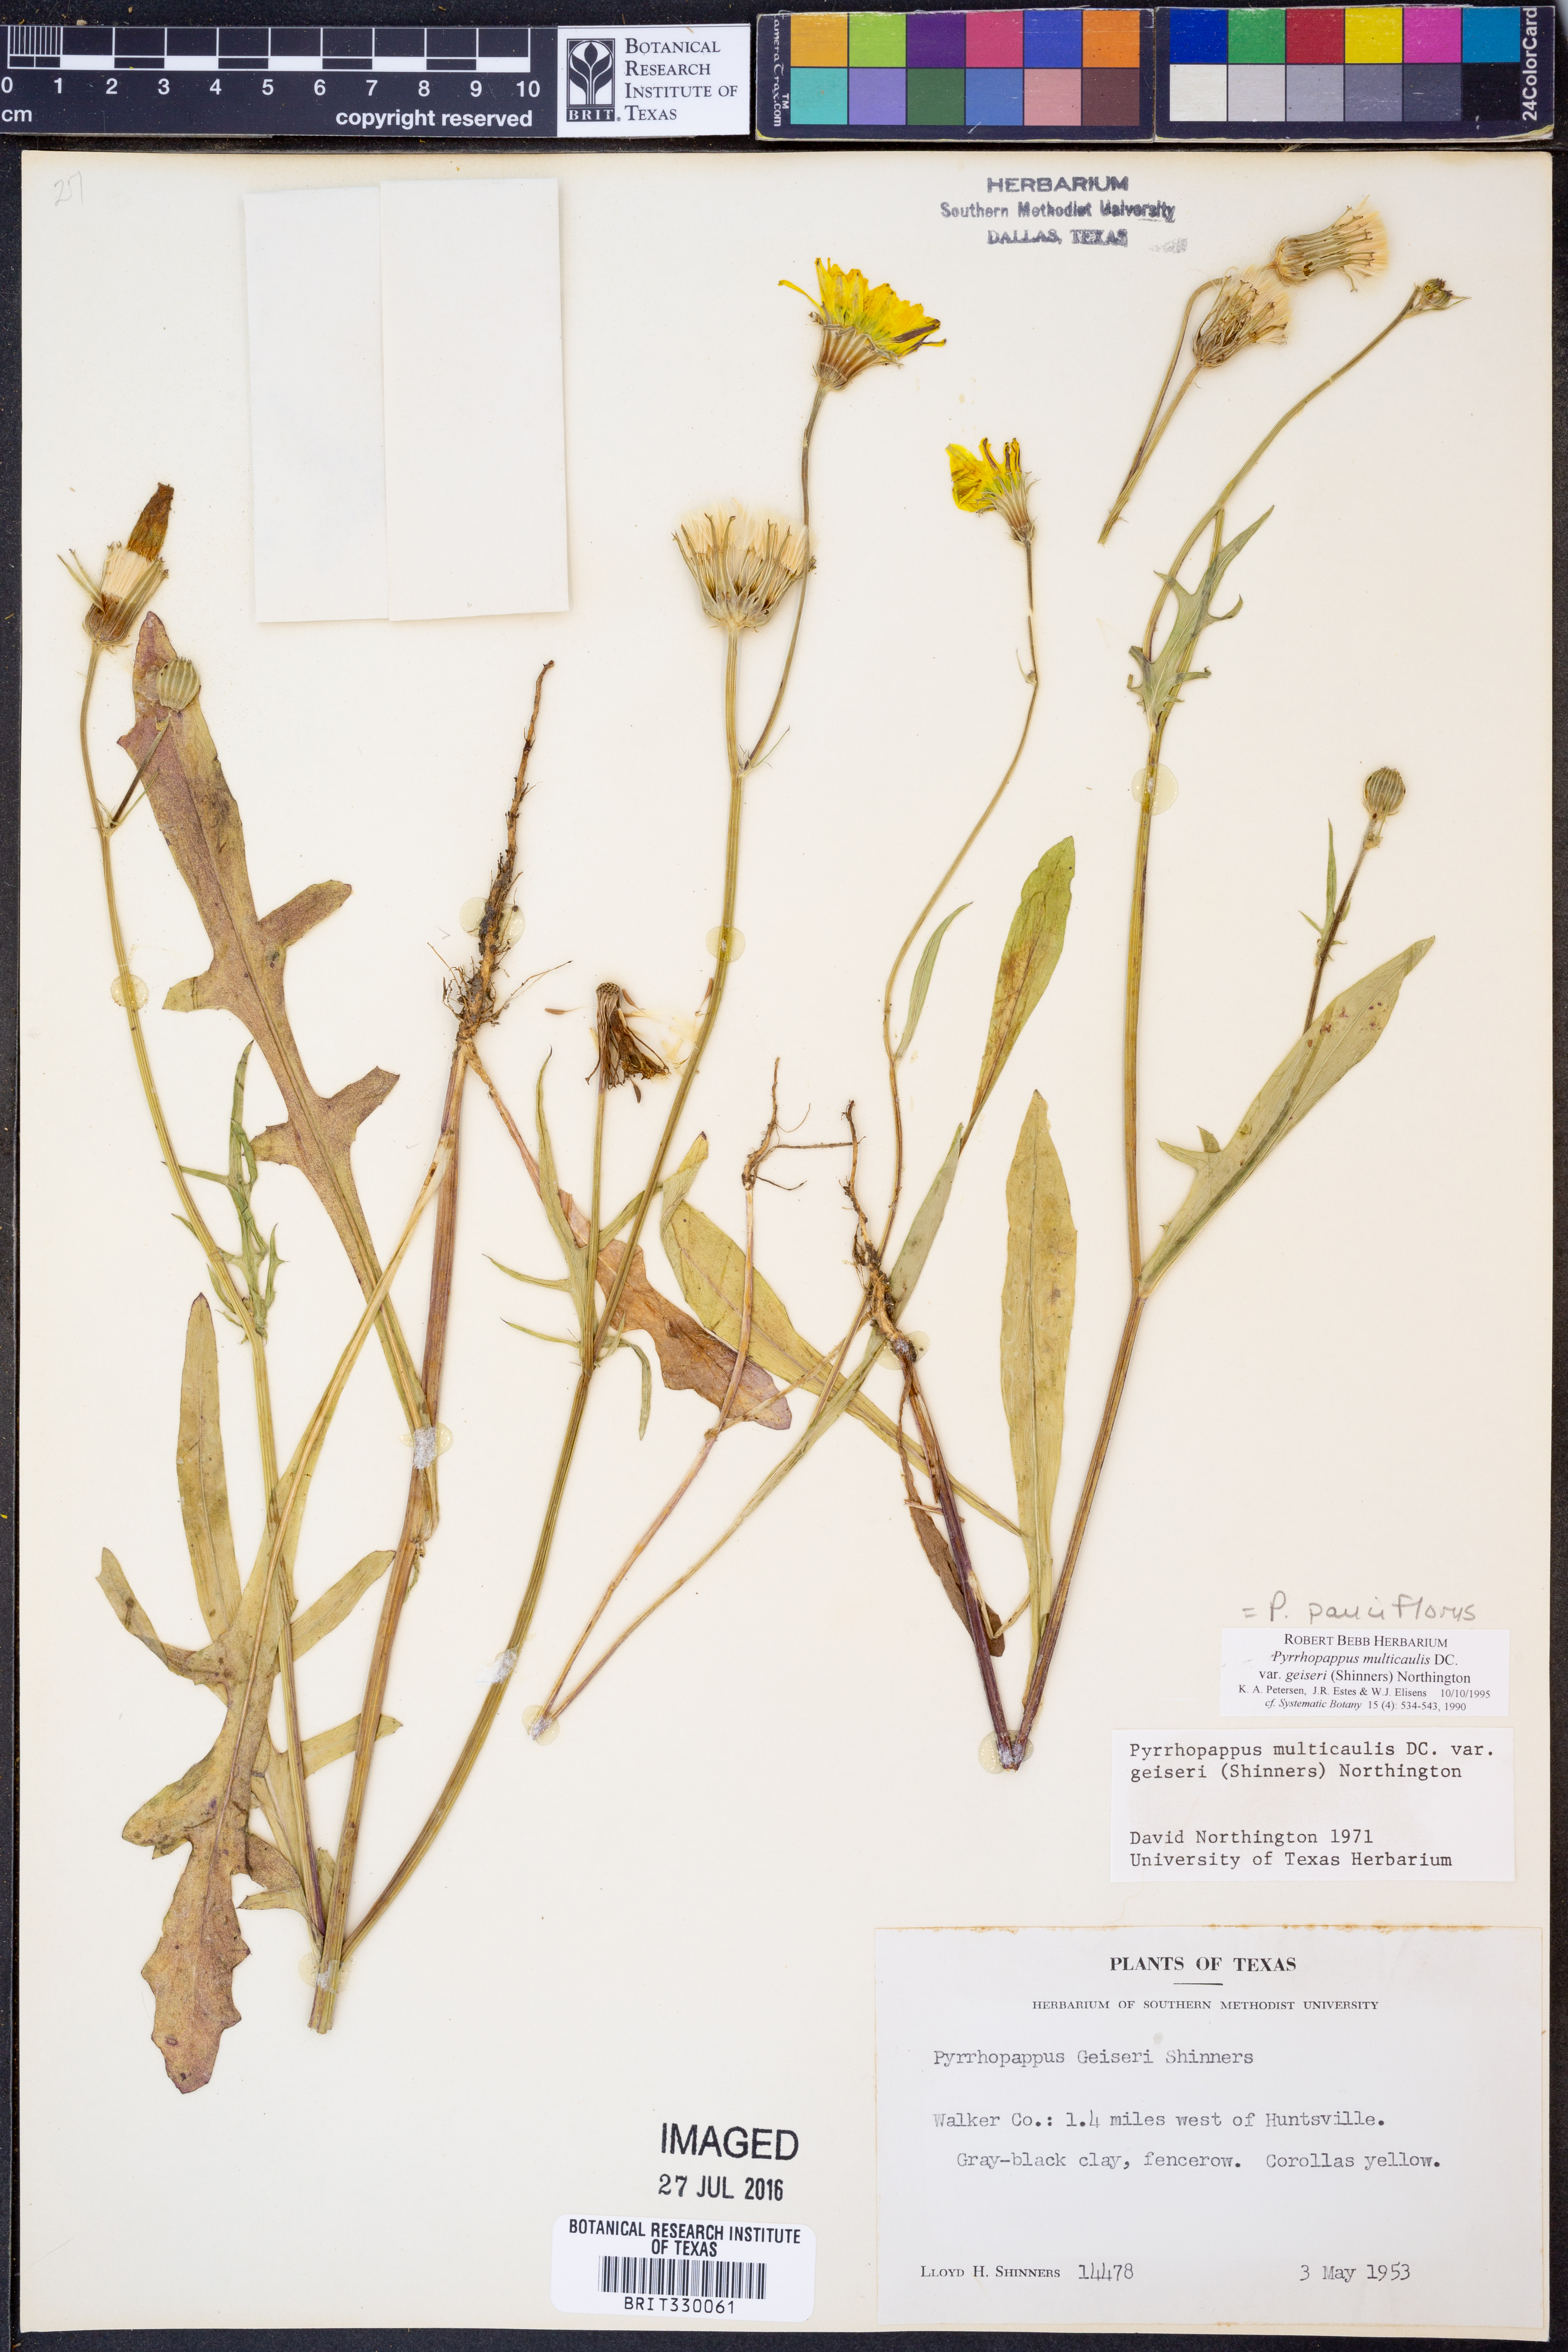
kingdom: Plantae
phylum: Tracheophyta
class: Magnoliopsida
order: Asterales
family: Asteraceae
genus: Pyrrhopappus
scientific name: Pyrrhopappus pauciflorus
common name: Texas false dandelion
